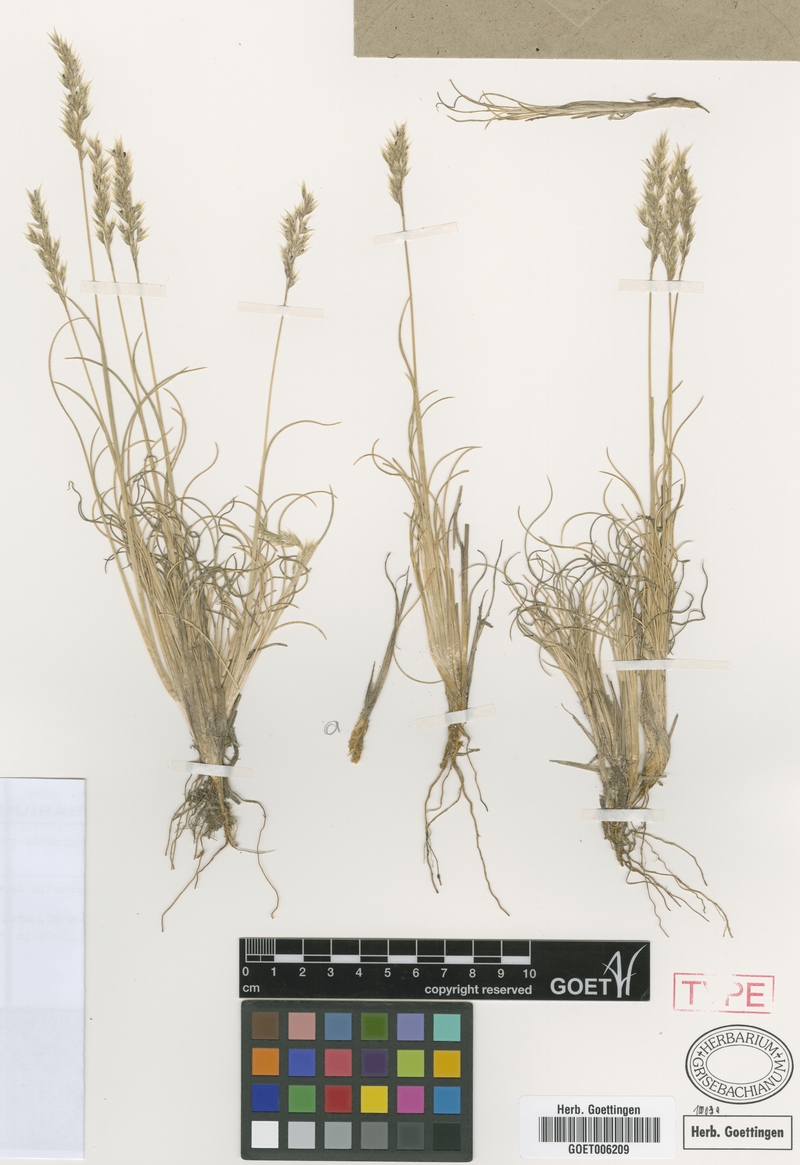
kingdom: Plantae
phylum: Tracheophyta
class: Liliopsida
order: Poales
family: Poaceae
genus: Cinnagrostis
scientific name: Cinnagrostis velutina
